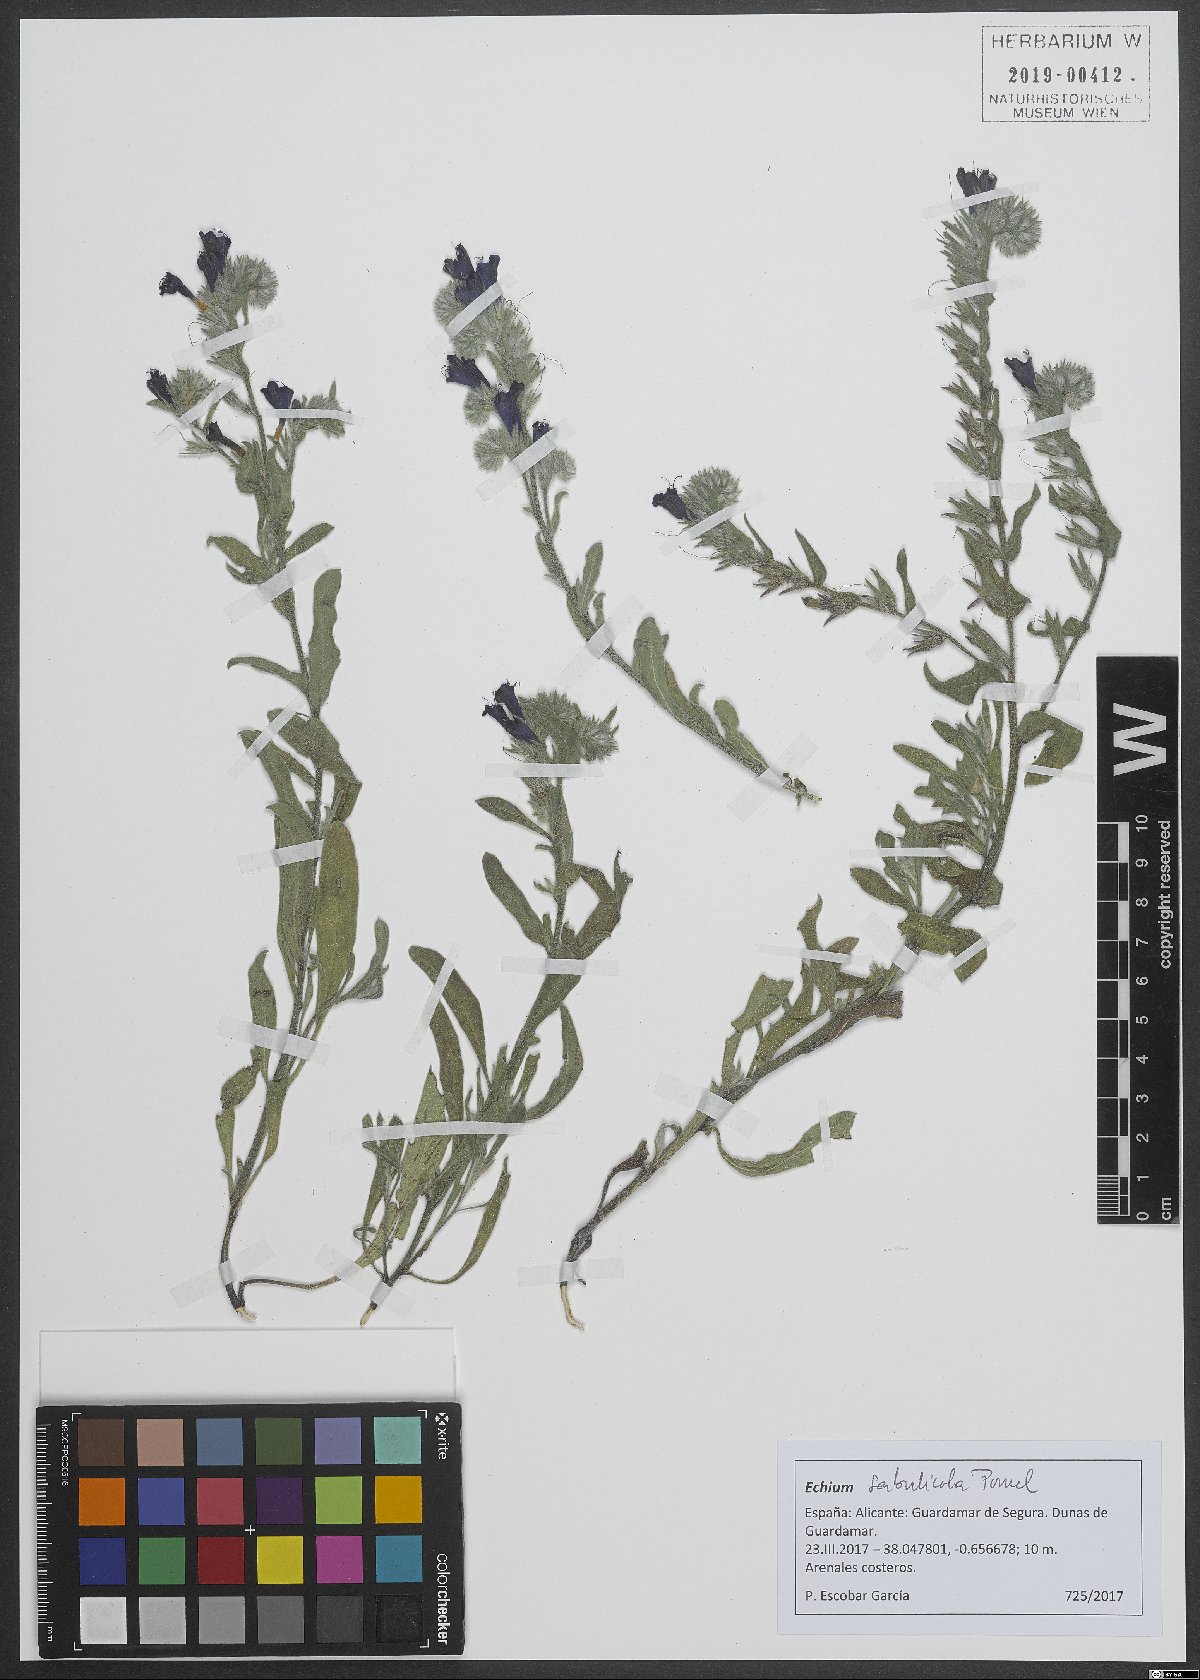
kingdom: Plantae
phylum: Tracheophyta
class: Magnoliopsida
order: Boraginales
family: Boraginaceae
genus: Echium
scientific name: Echium sabulicola
